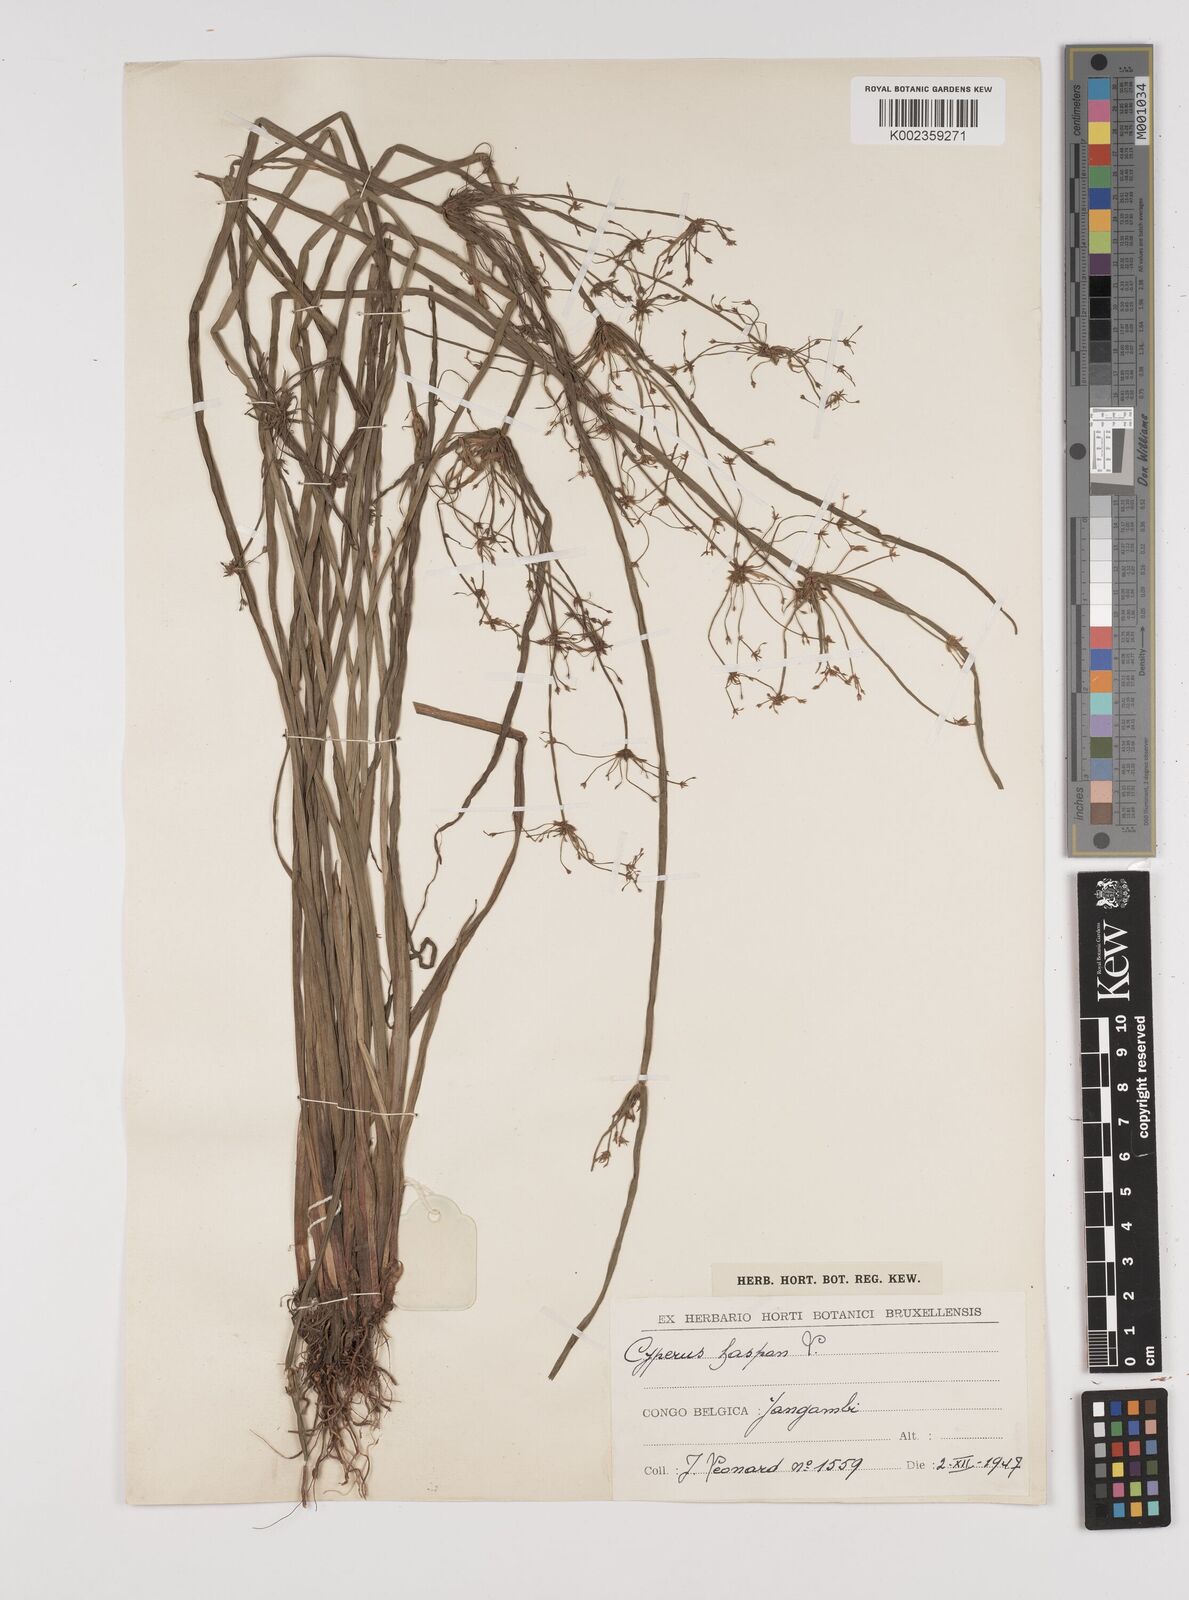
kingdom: Plantae
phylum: Tracheophyta
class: Liliopsida
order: Poales
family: Cyperaceae
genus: Cyperus
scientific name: Cyperus haspan
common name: Haspan flatsedge
